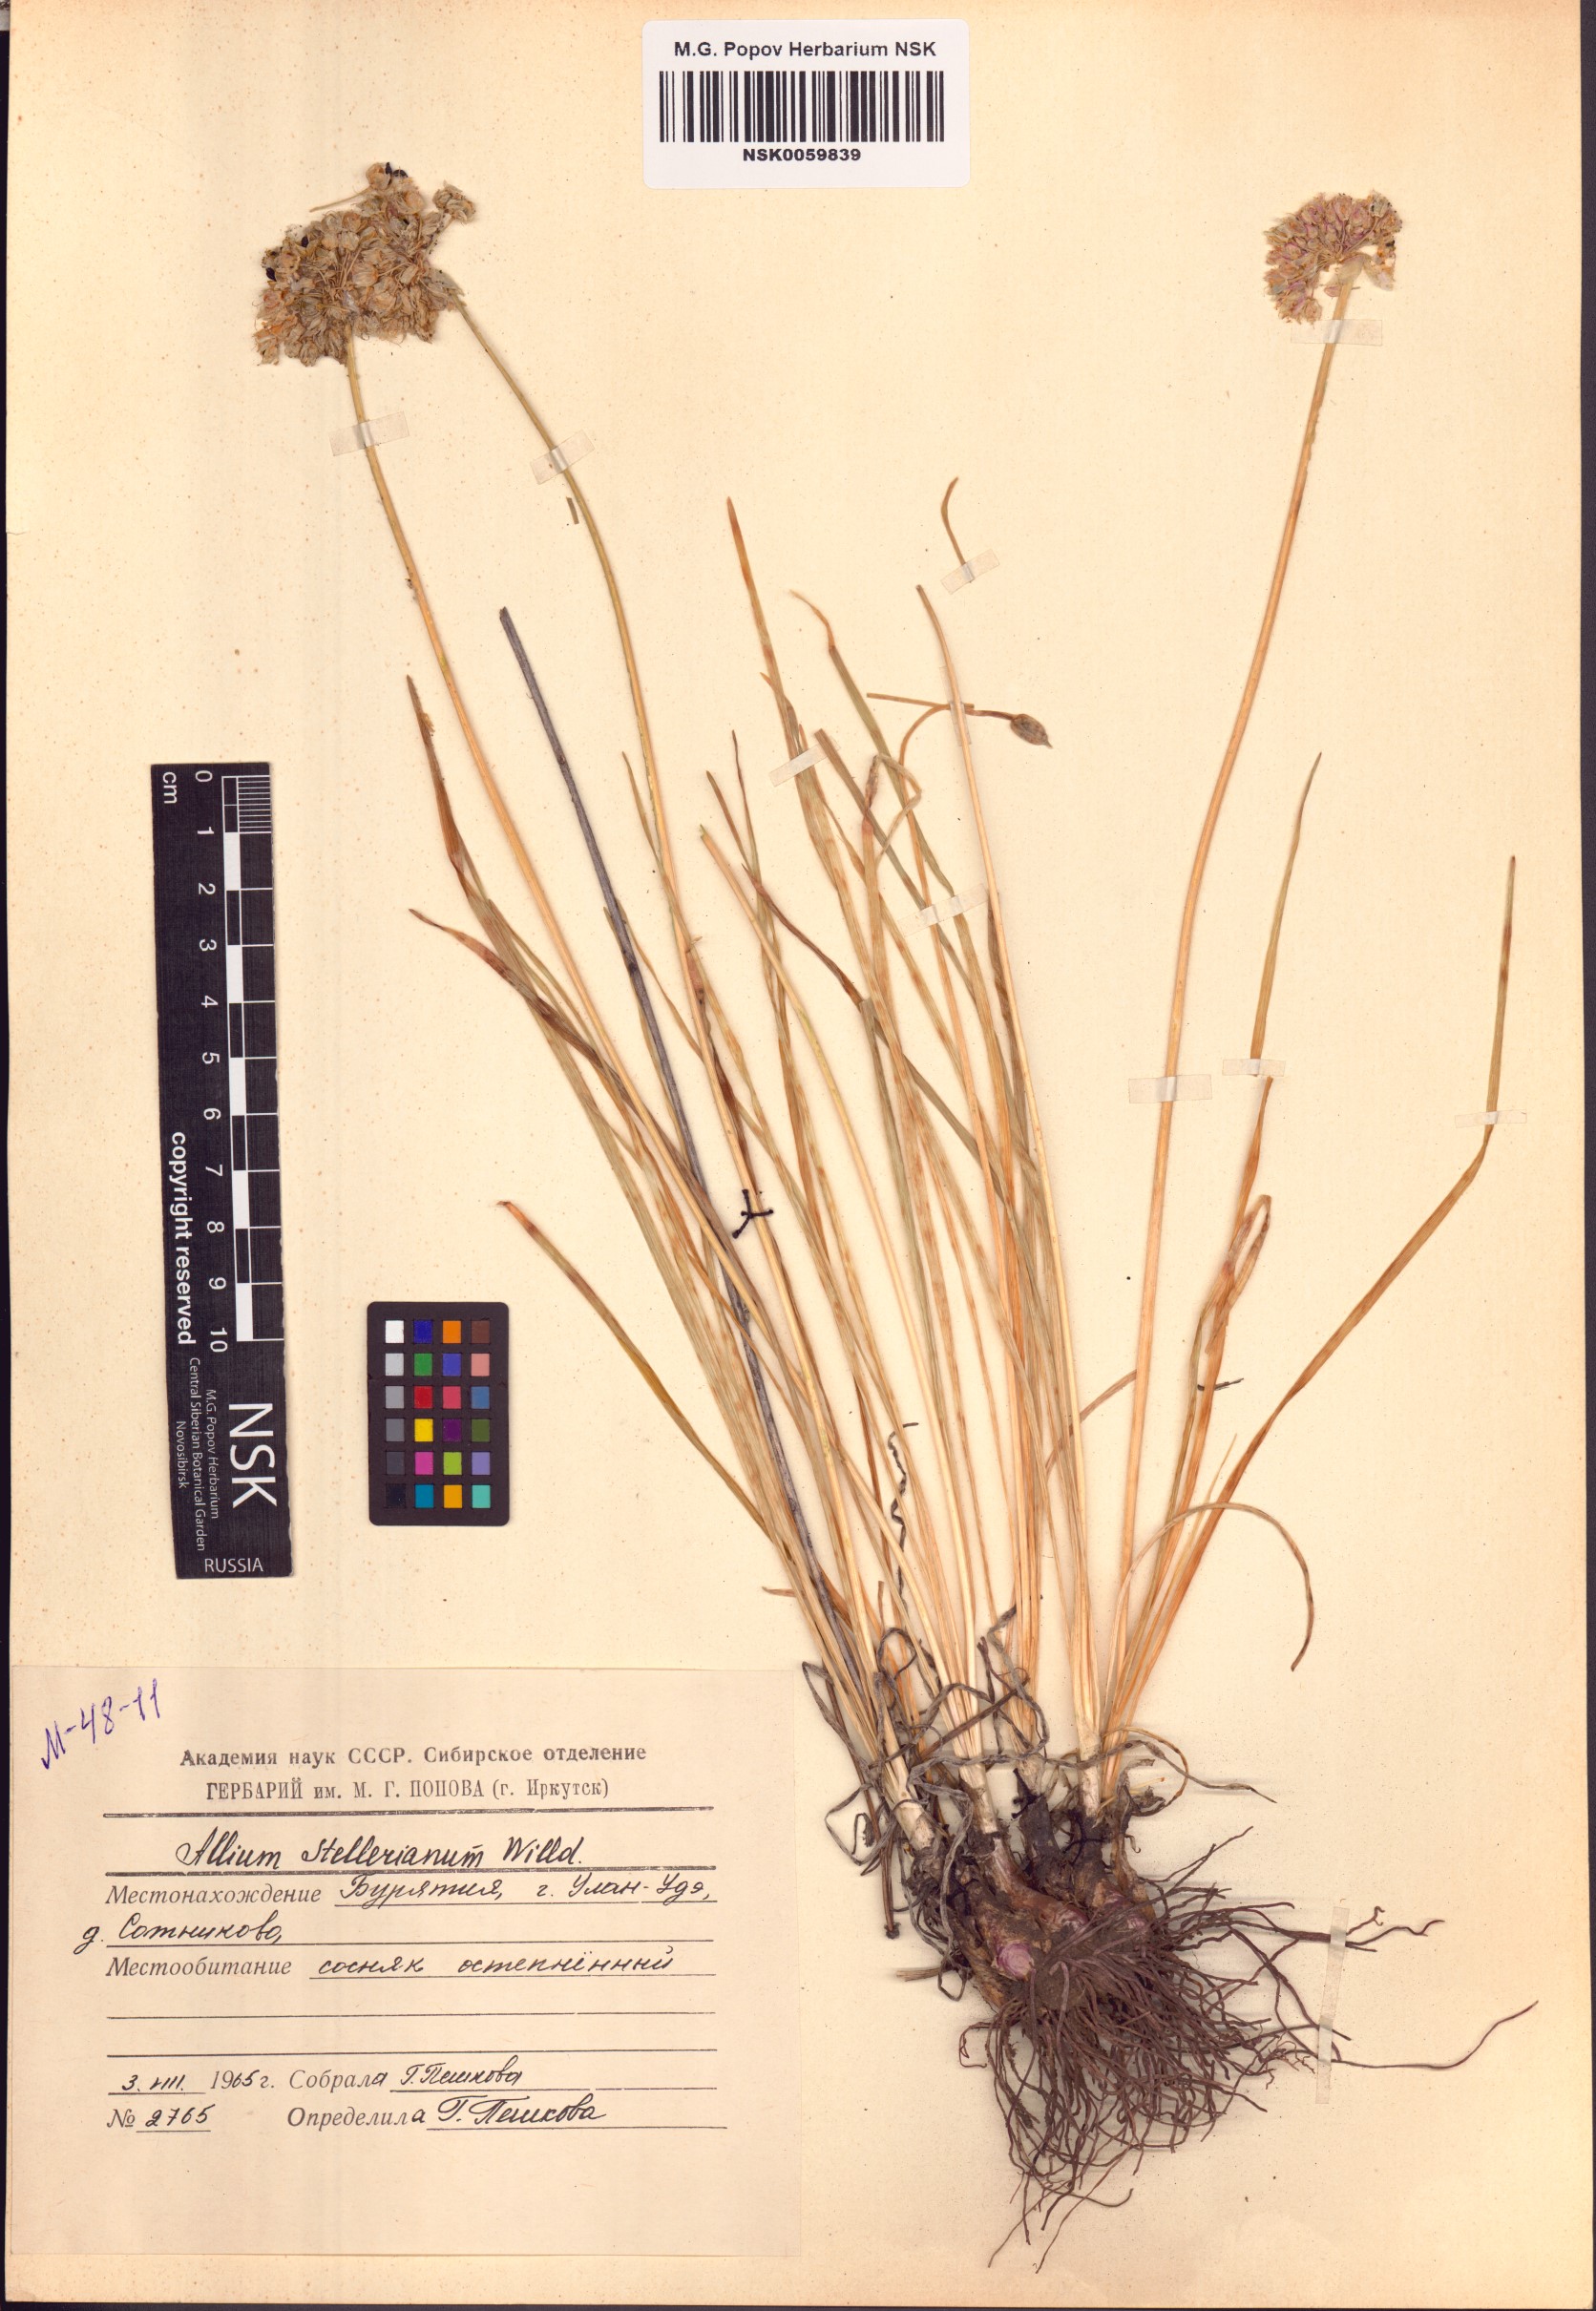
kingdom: Plantae
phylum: Tracheophyta
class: Liliopsida
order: Asparagales
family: Amaryllidaceae
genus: Allium
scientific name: Allium stellerianum
